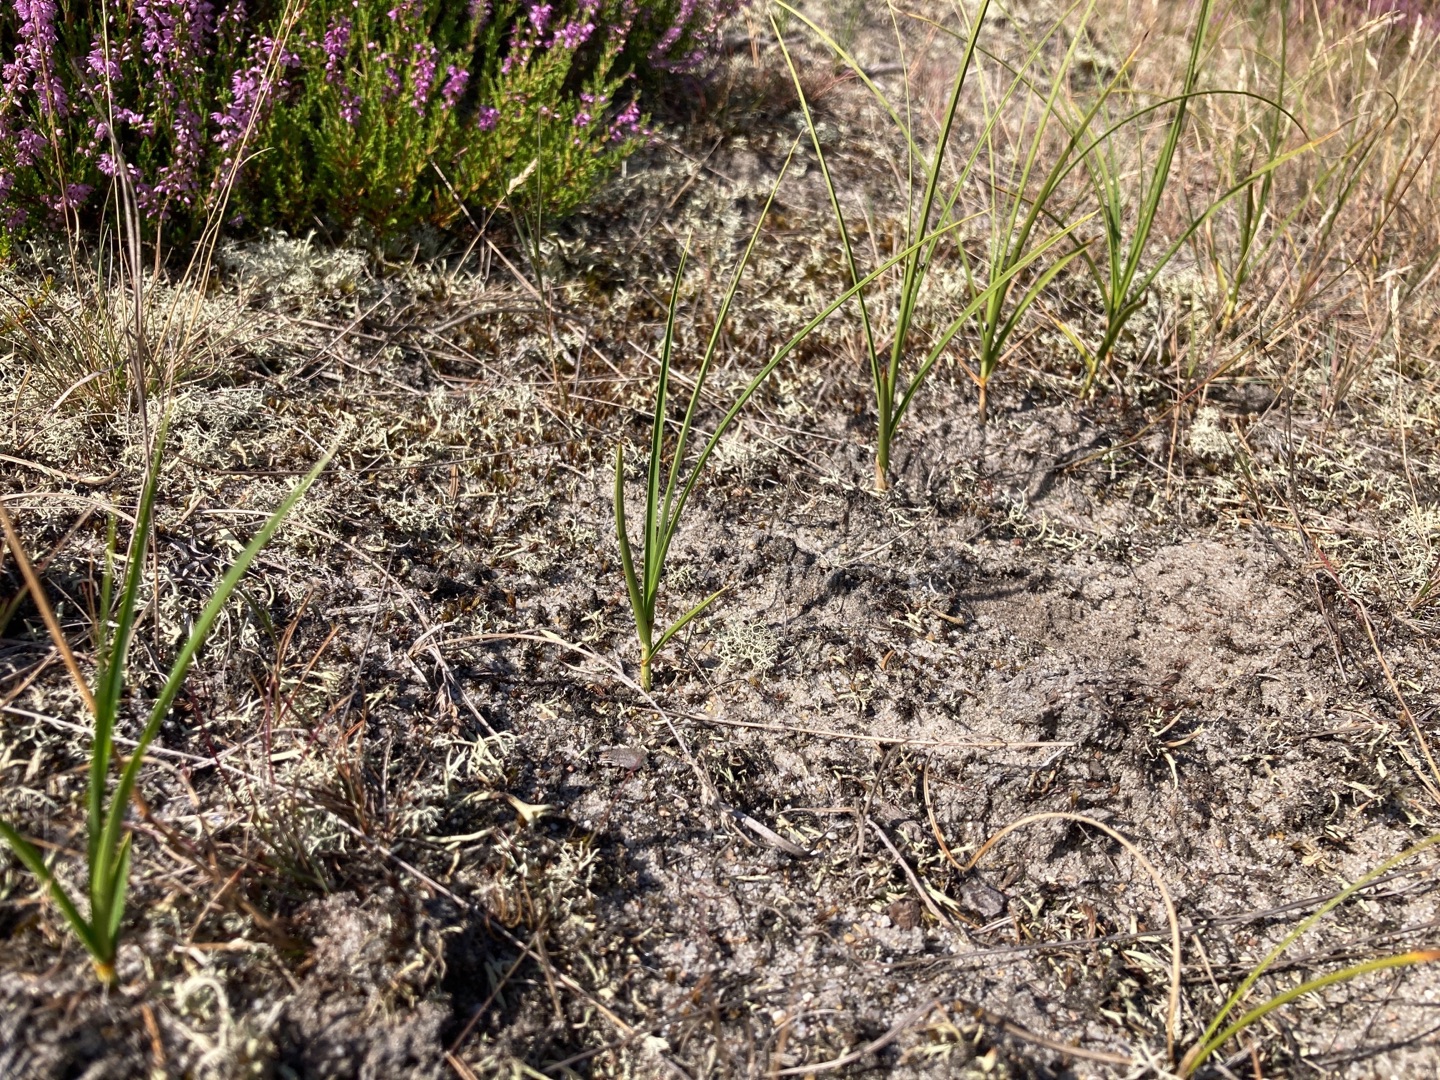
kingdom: Plantae
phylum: Tracheophyta
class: Liliopsida
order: Poales
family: Cyperaceae
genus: Carex
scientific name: Carex arenaria
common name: Sand-star
